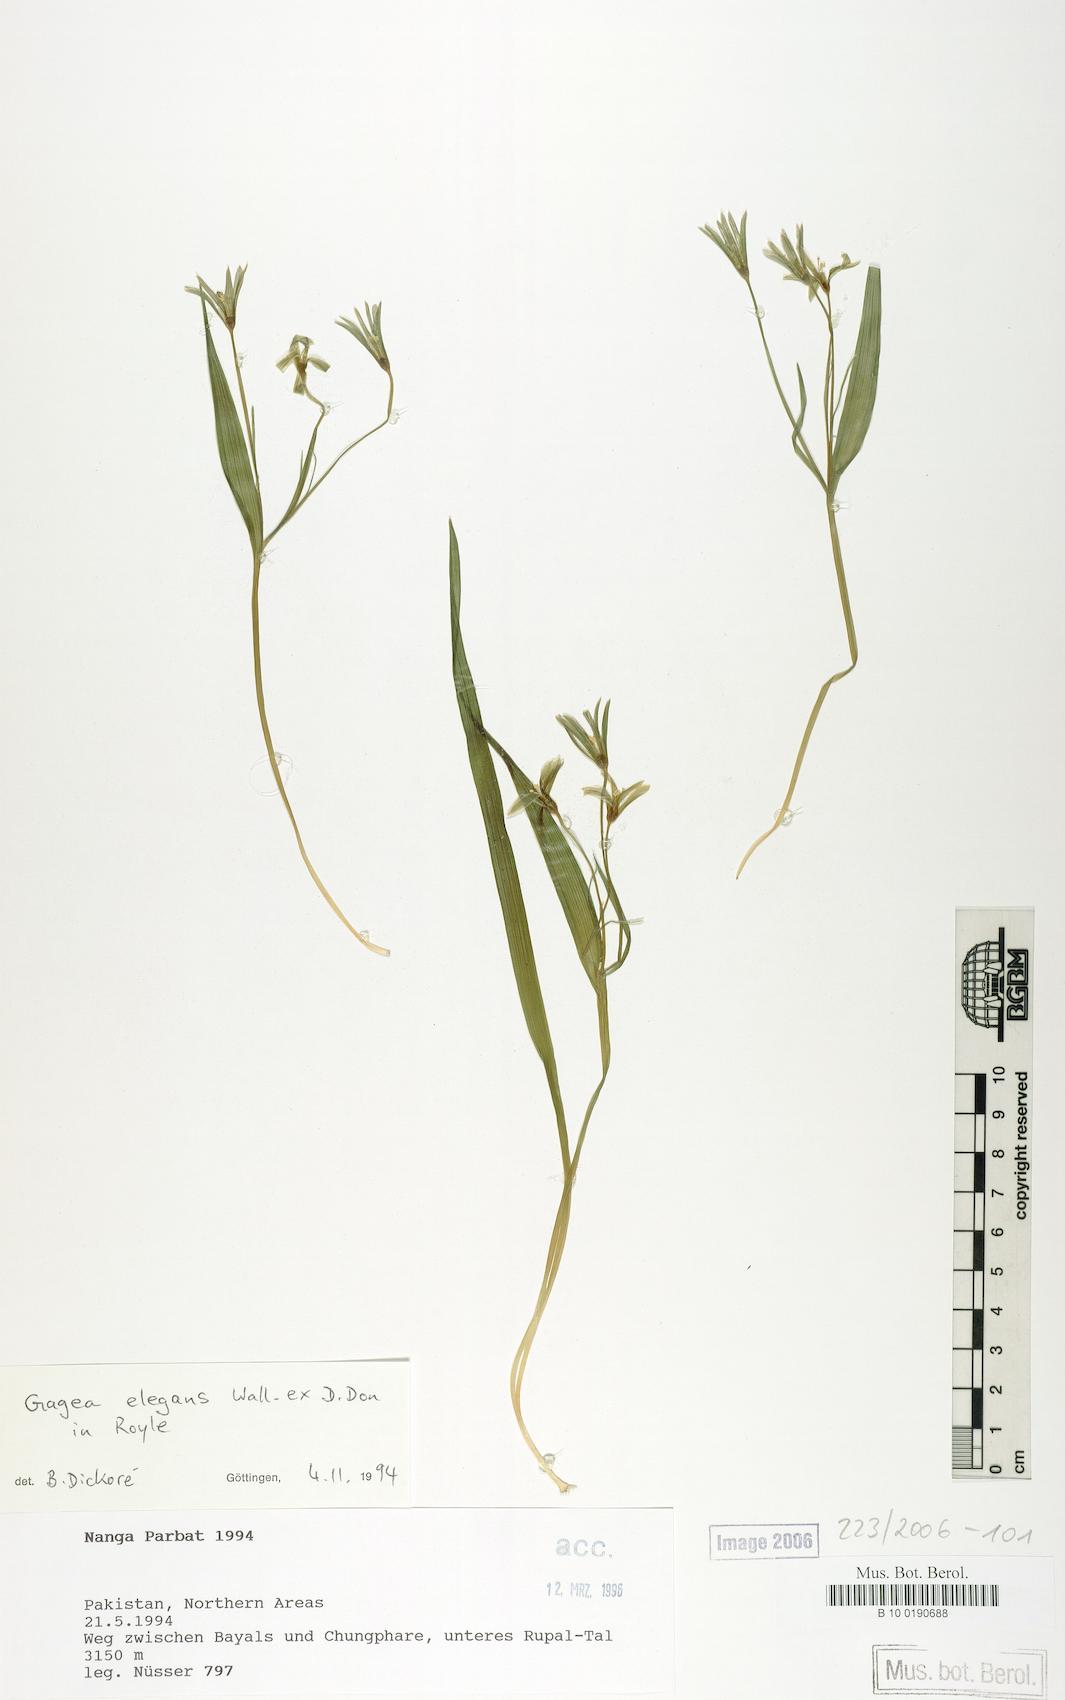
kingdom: Plantae
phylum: Tracheophyta
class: Liliopsida
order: Liliales
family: Liliaceae
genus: Gagea
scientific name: Gagea elegans
